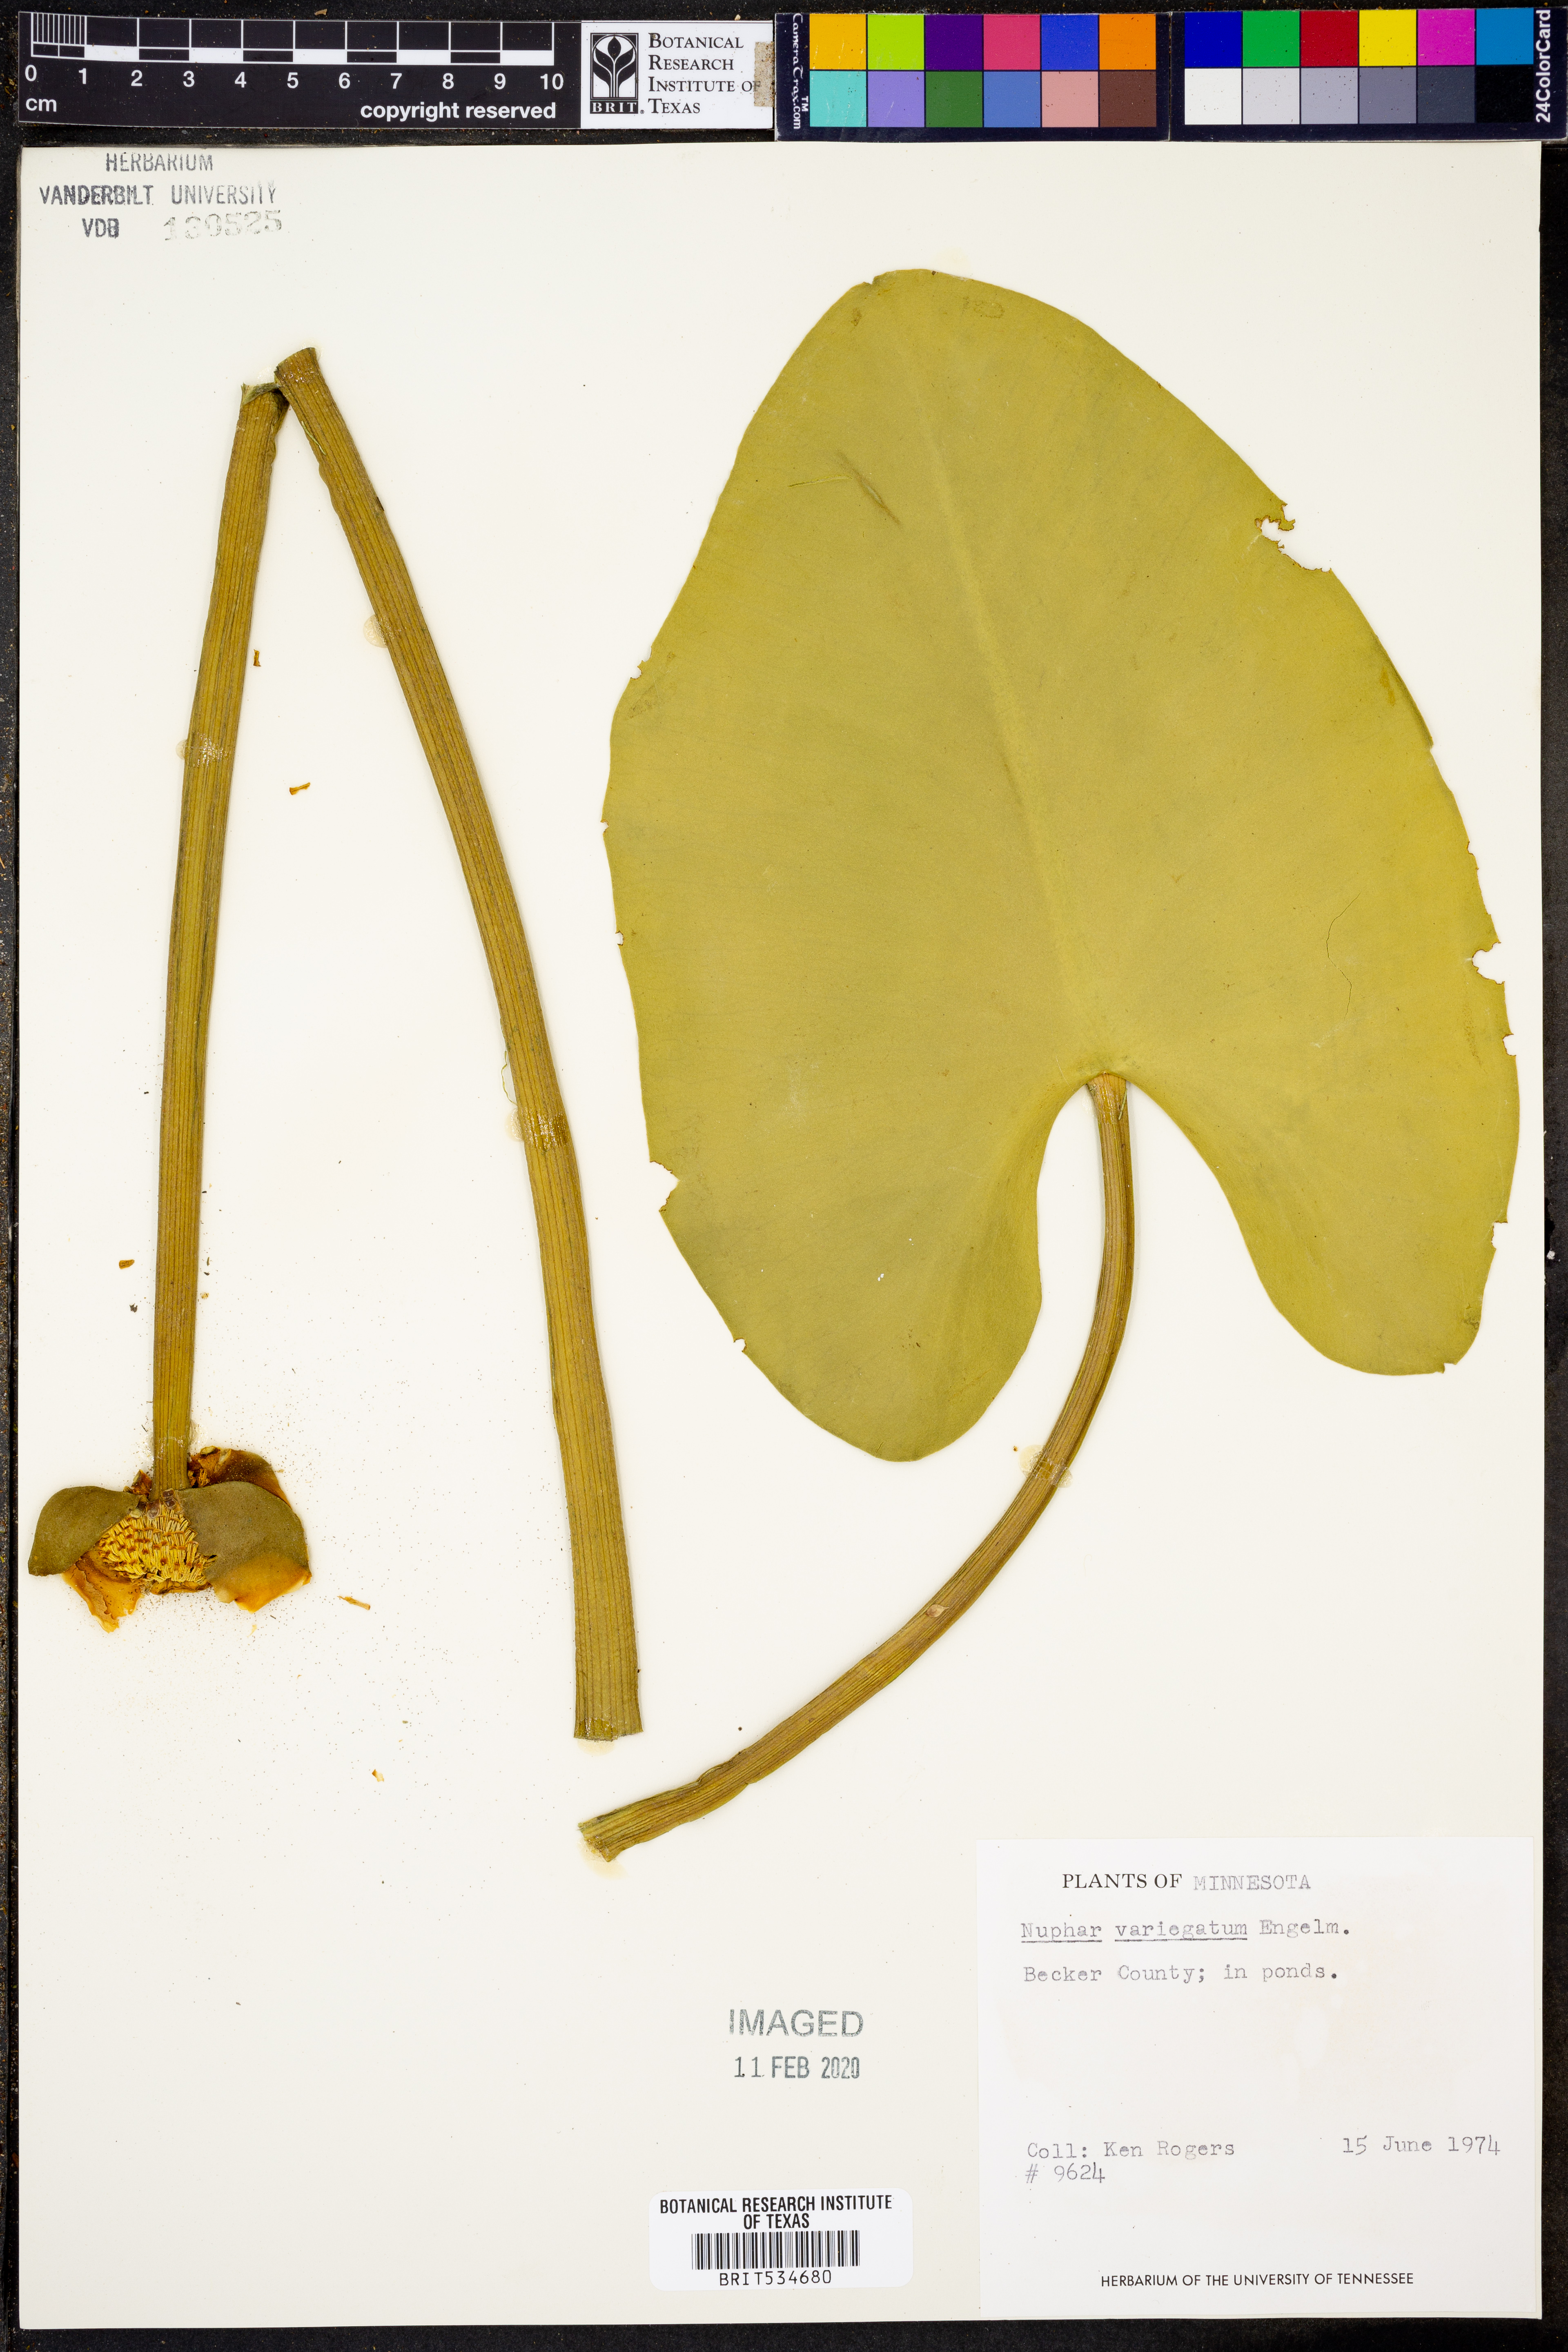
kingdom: Plantae
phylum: Tracheophyta
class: Magnoliopsida
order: Nymphaeales
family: Nymphaeaceae
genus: Nuphar
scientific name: Nuphar variegata
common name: Beaver-root
